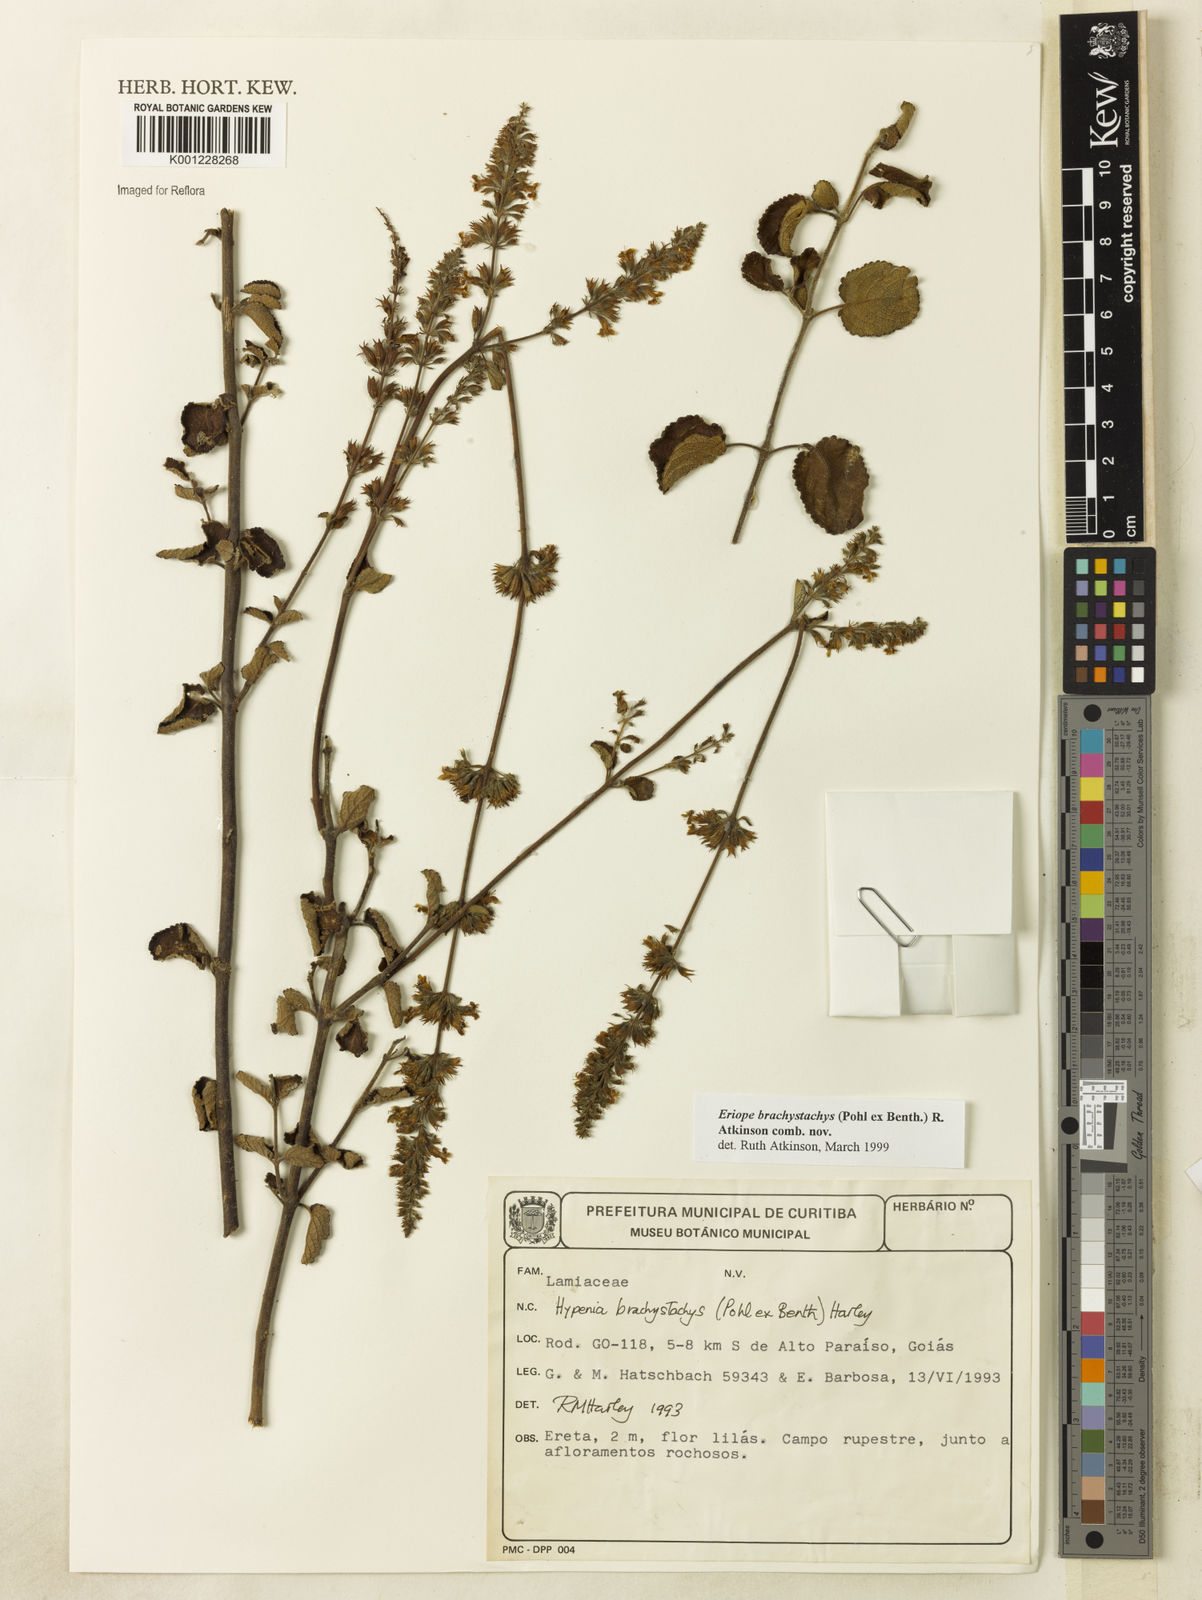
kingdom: Plantae
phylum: Tracheophyta
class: Magnoliopsida
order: Lamiales
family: Lamiaceae
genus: Hypenia
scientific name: Hypenia brachystachys
